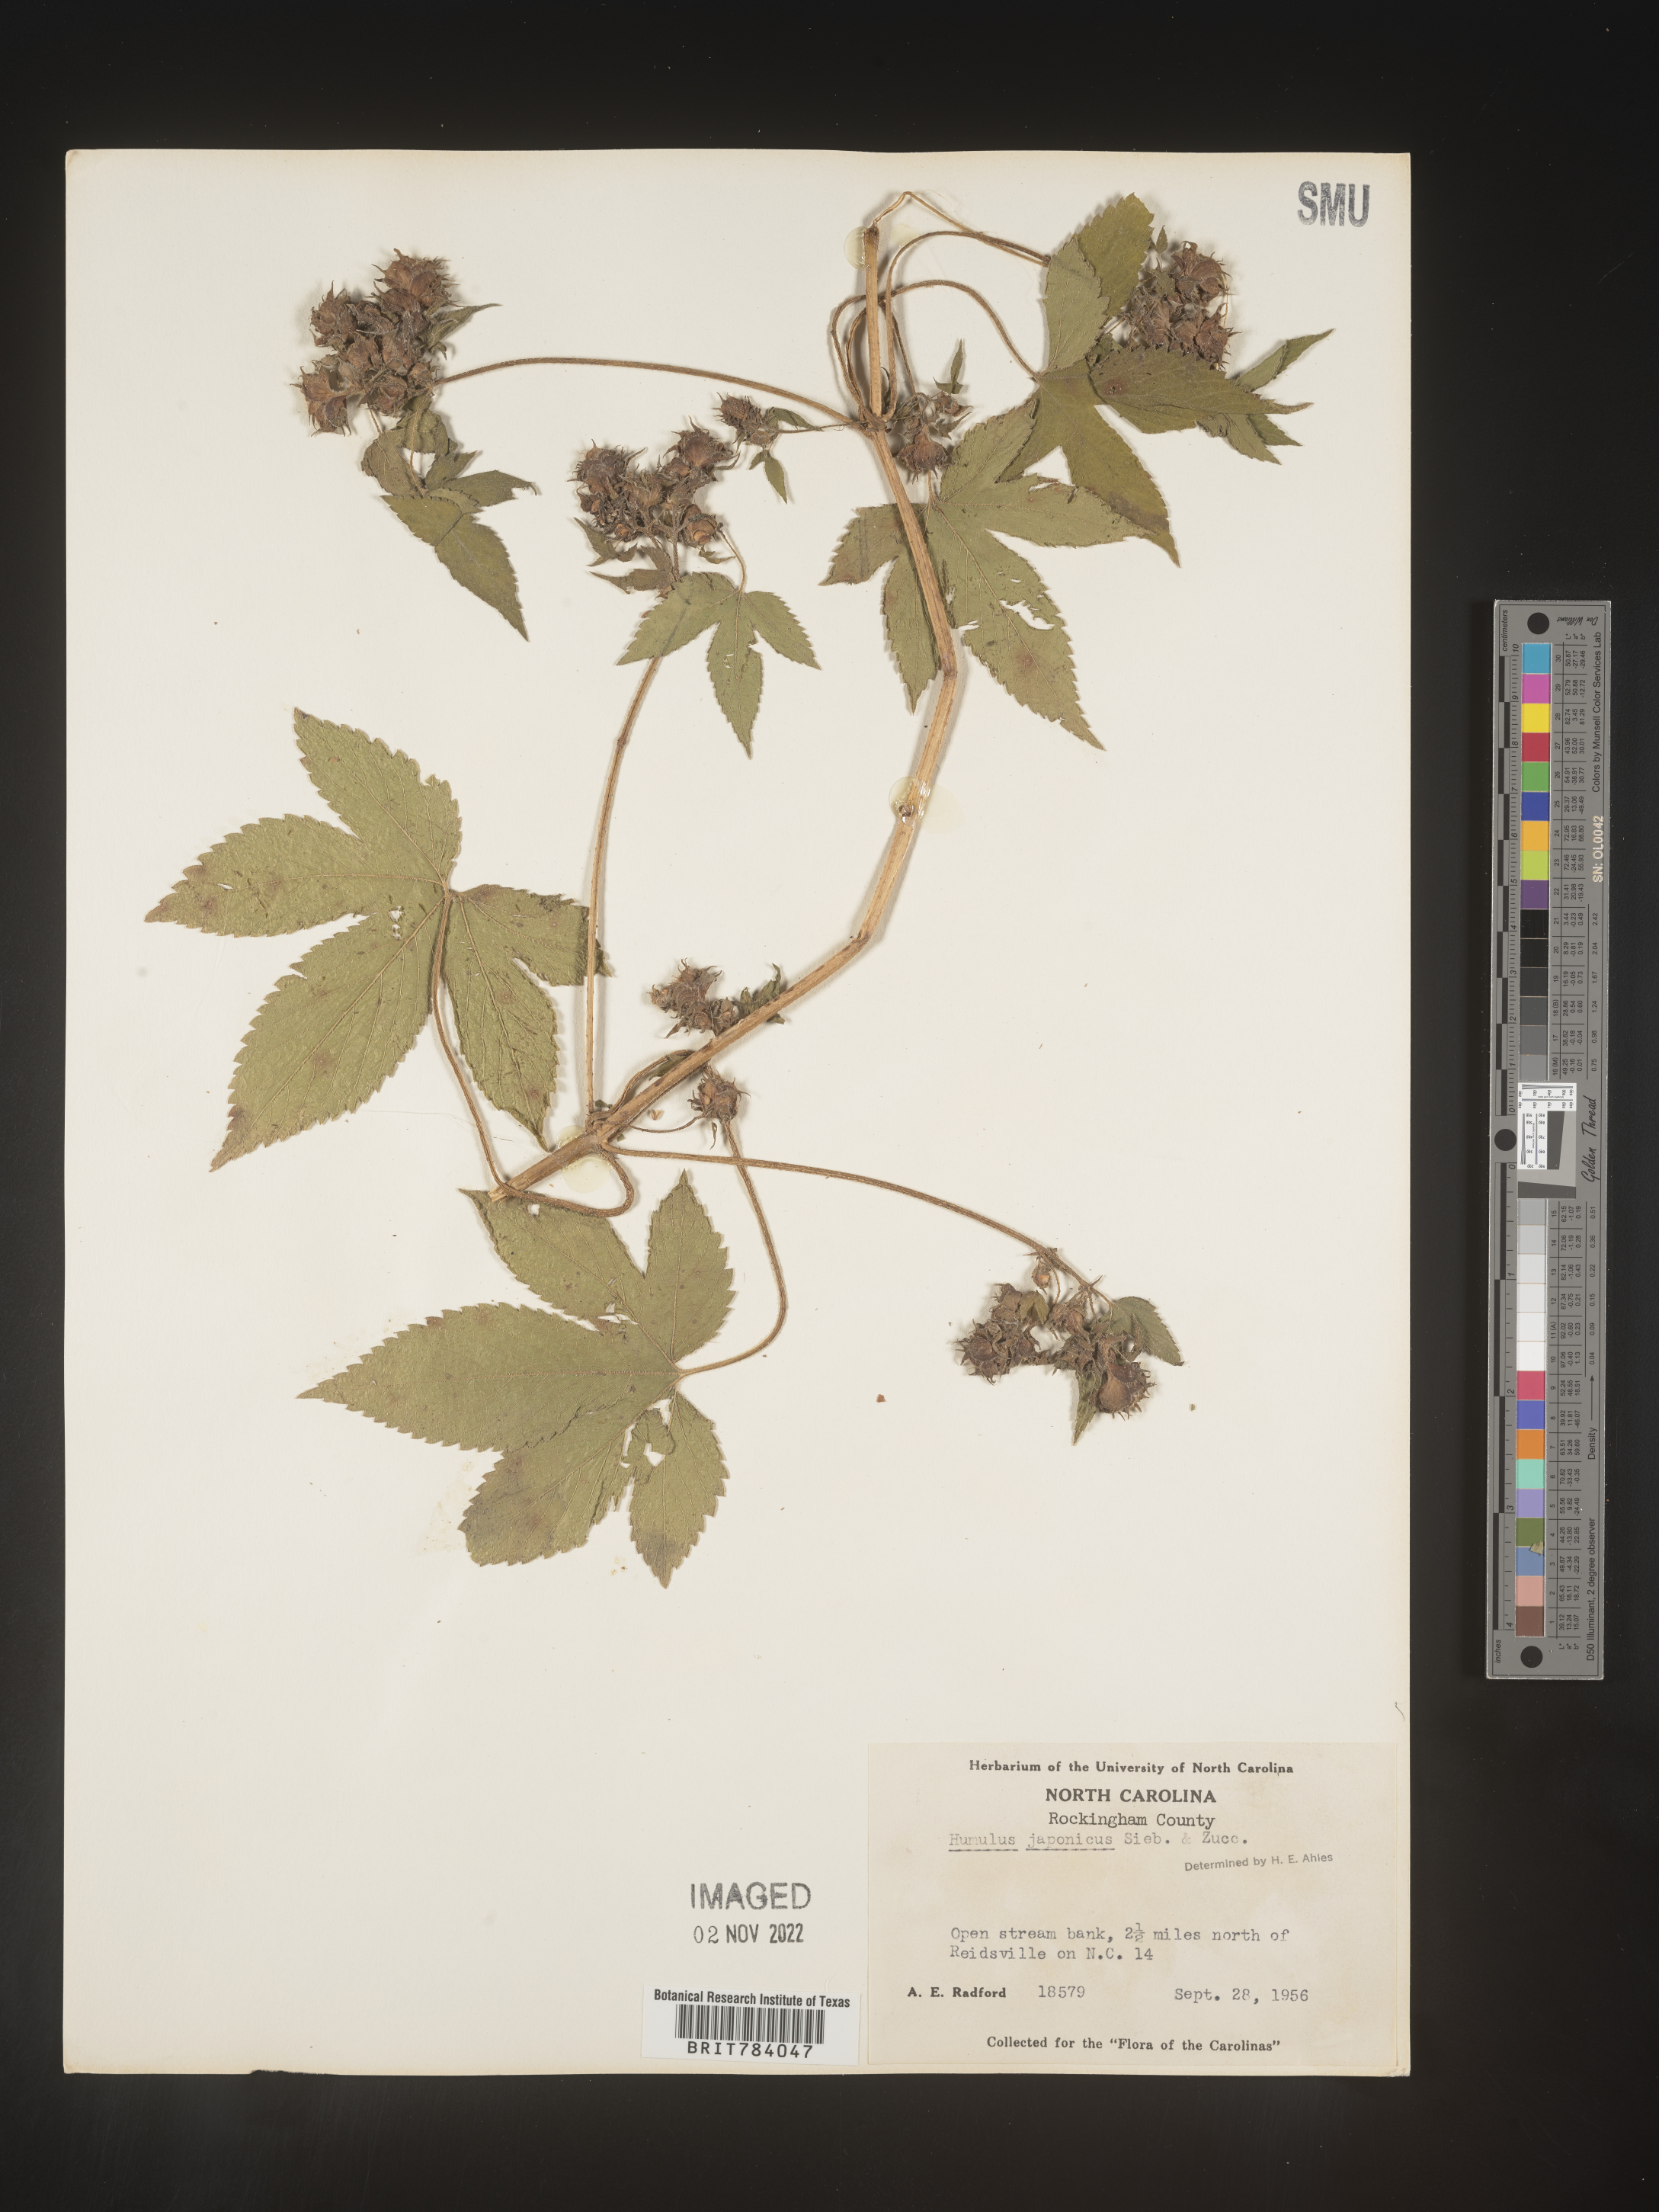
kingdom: Plantae
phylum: Tracheophyta
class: Magnoliopsida
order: Rosales
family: Cannabaceae
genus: Humulus
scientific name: Humulus scandens
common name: Japanese hop
